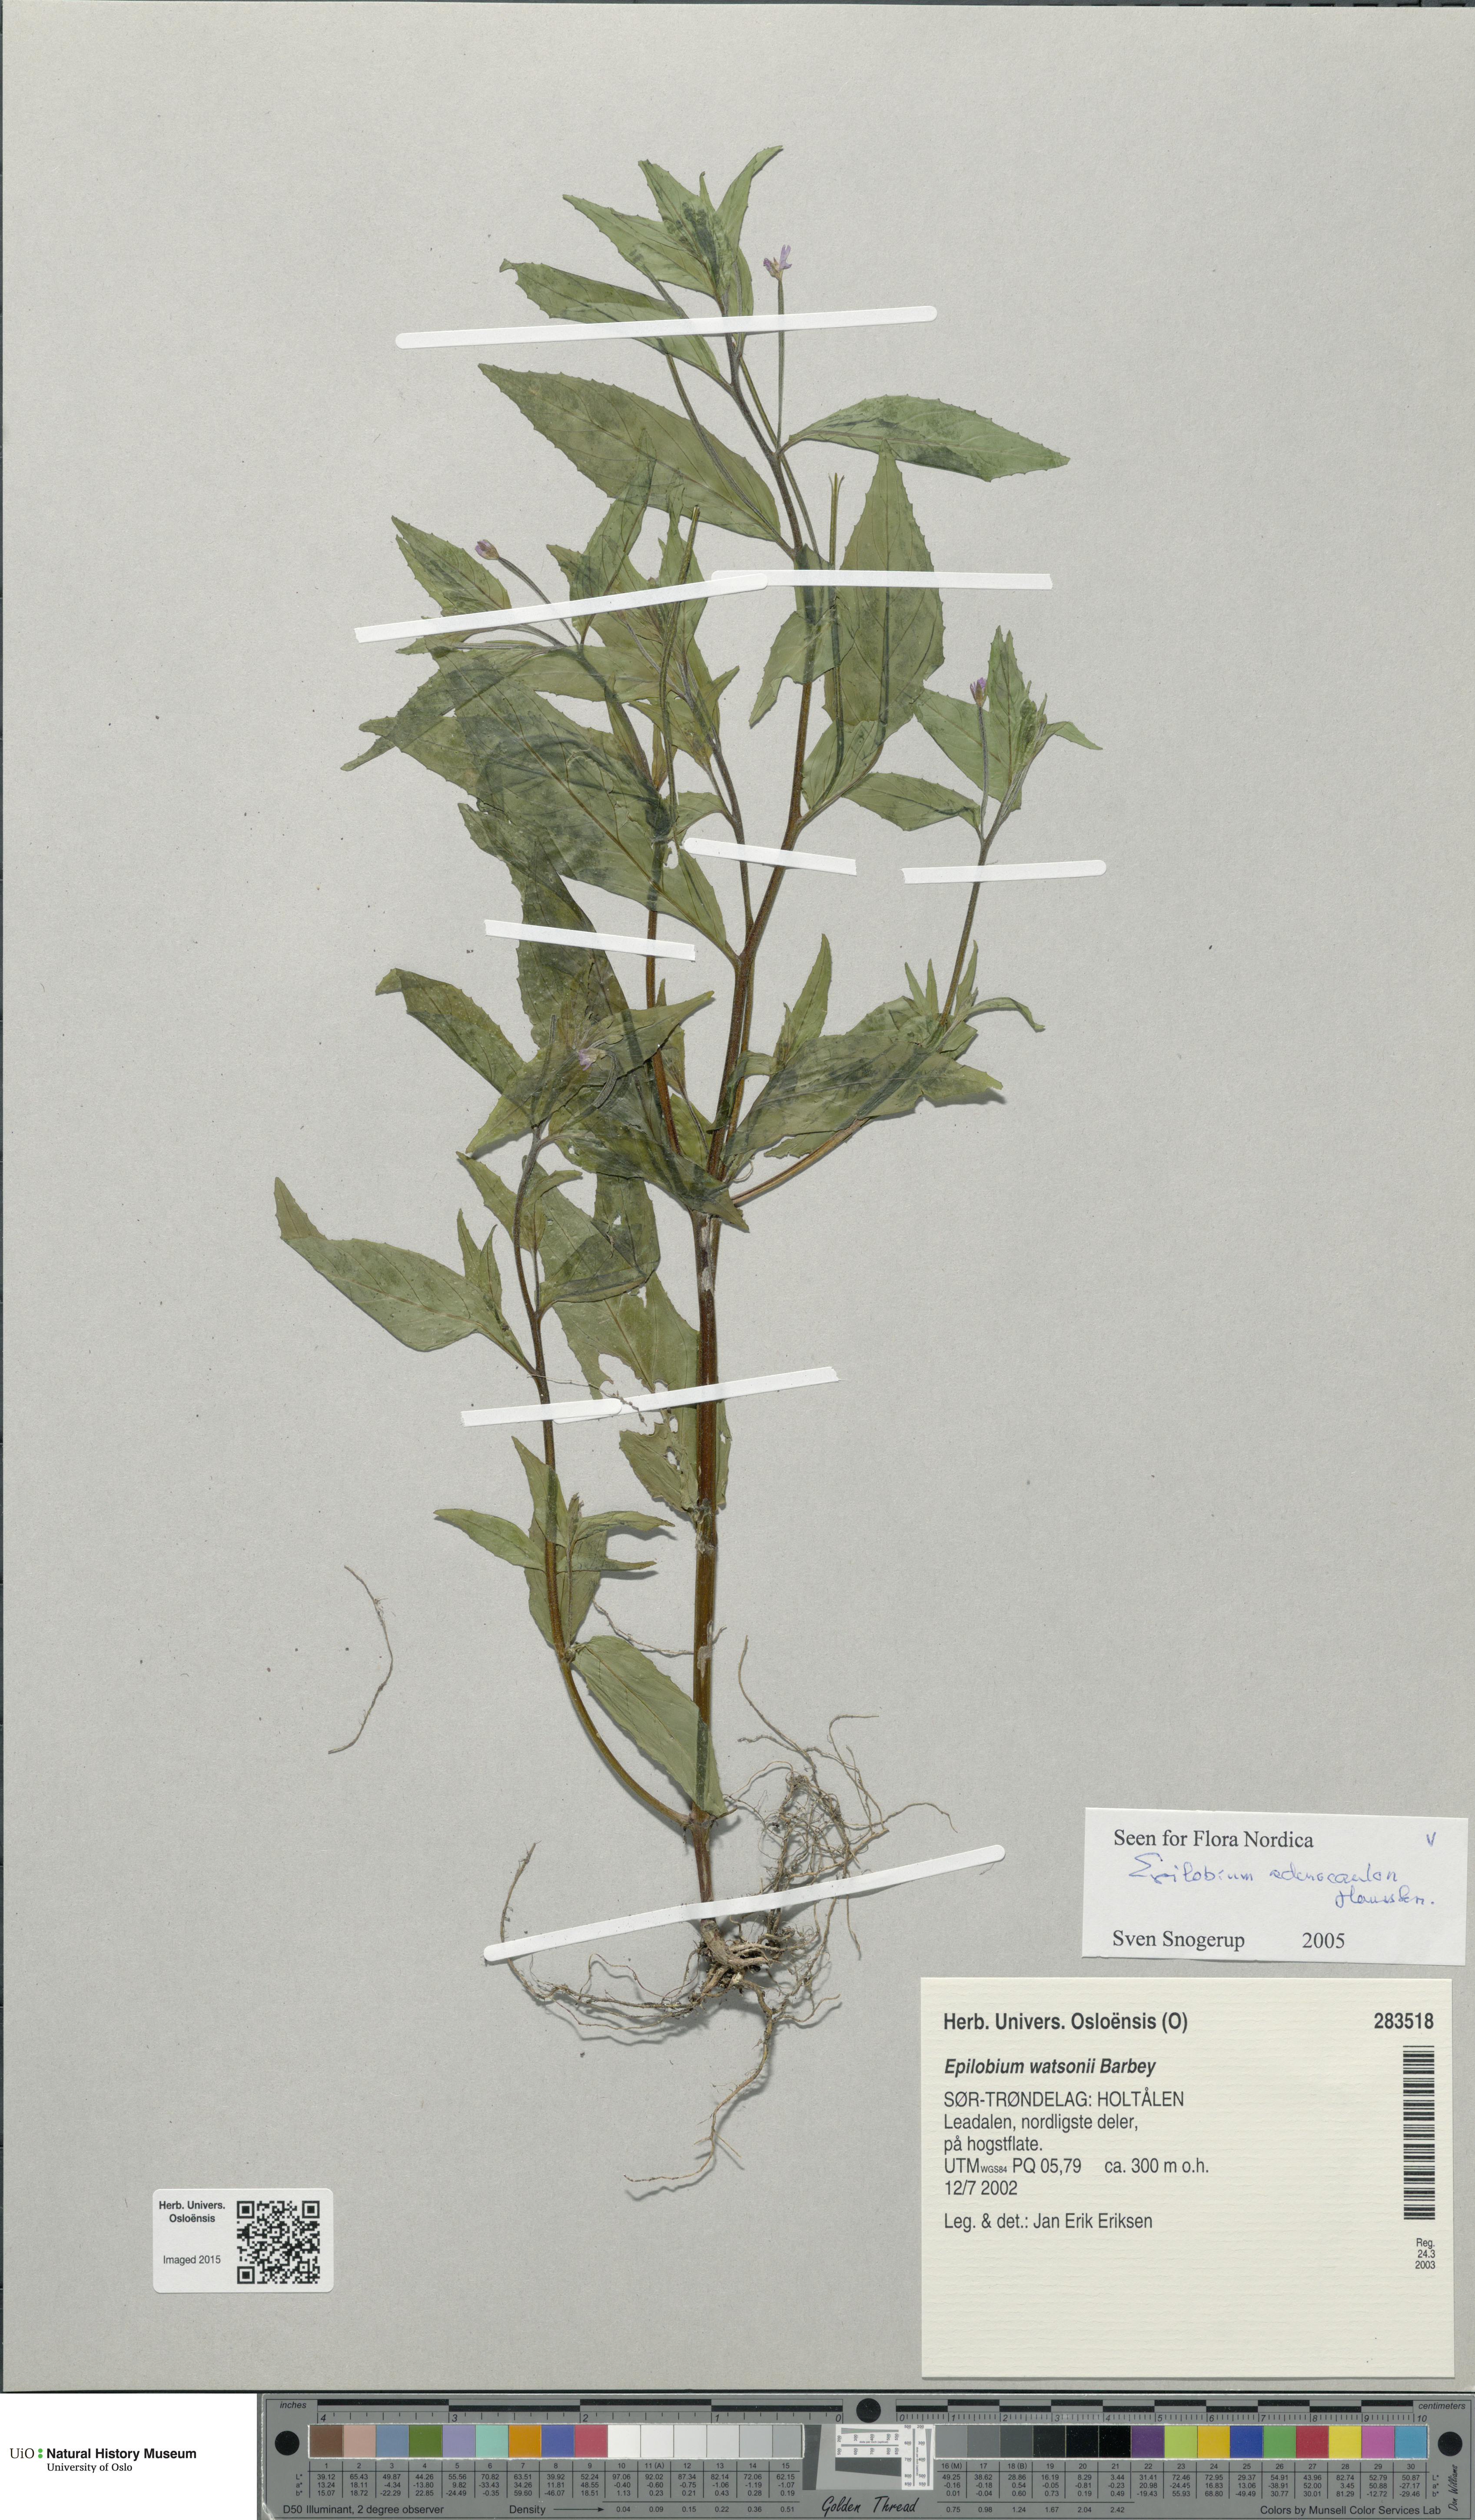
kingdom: Plantae
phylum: Tracheophyta
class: Magnoliopsida
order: Myrtales
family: Onagraceae
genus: Epilobium
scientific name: Epilobium ciliatum
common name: American willowherb
